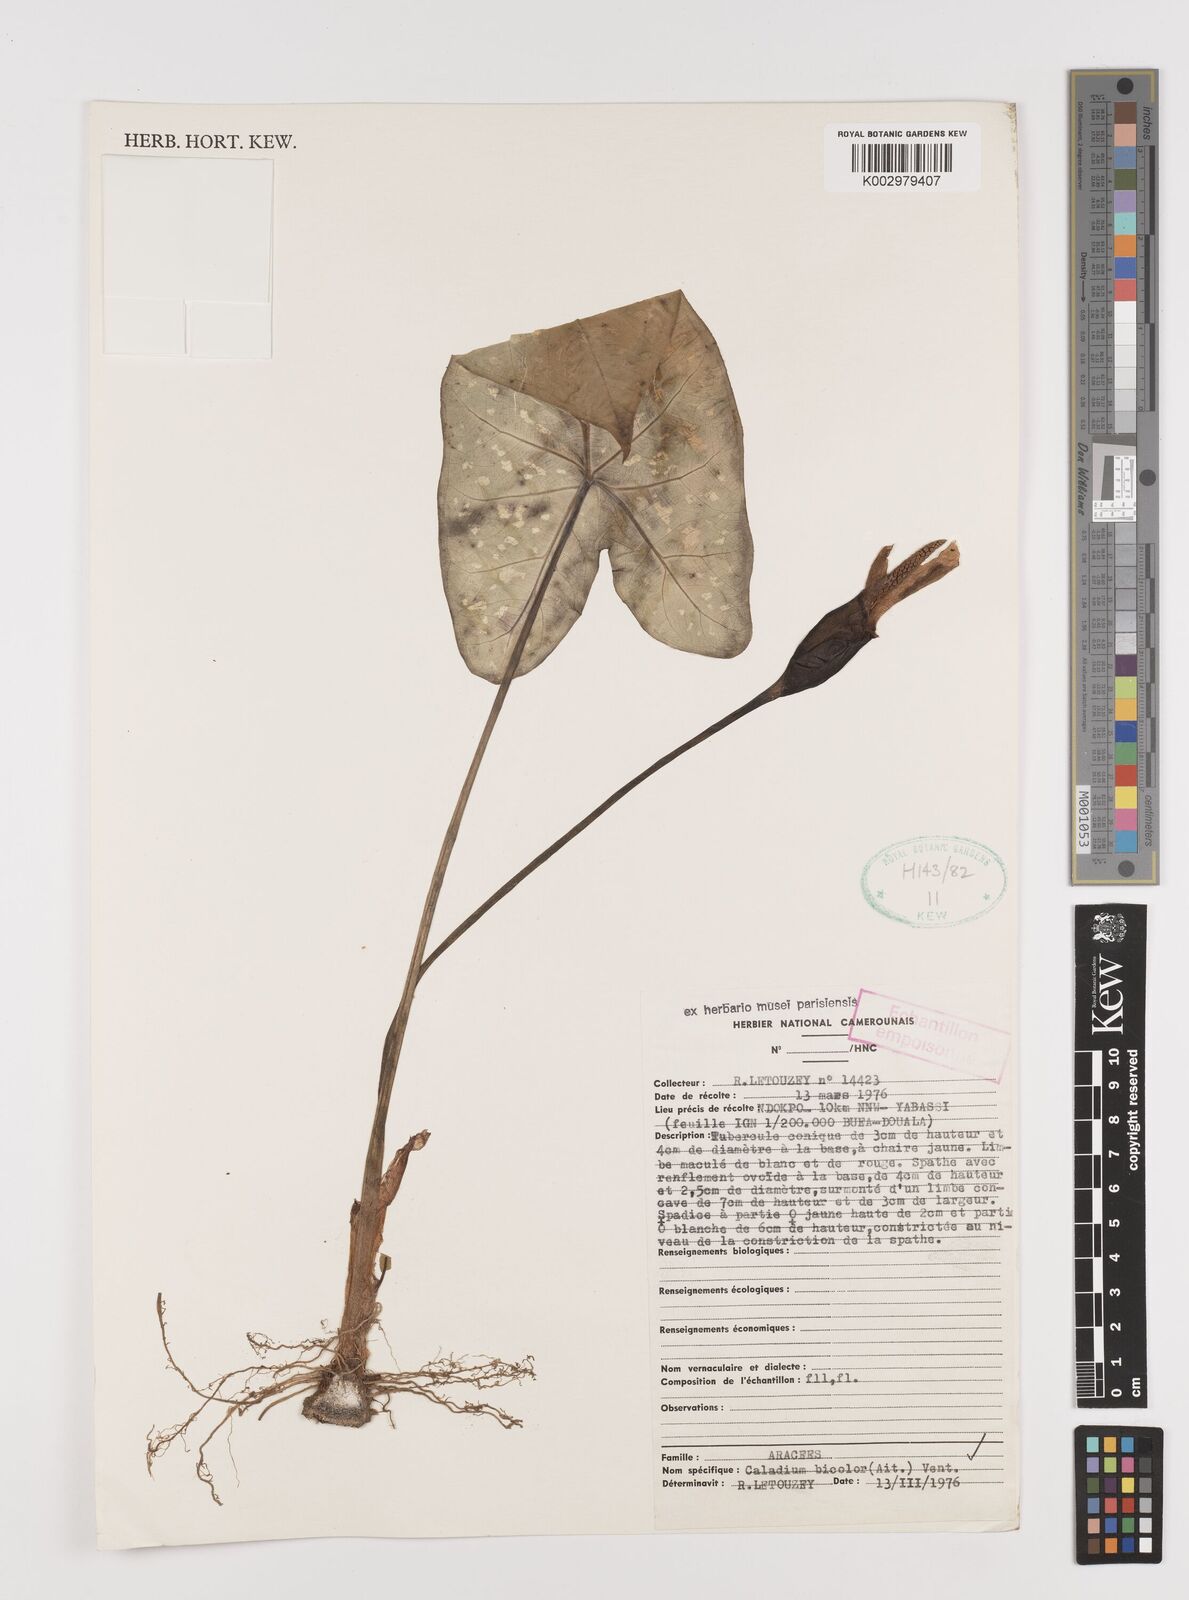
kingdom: Plantae
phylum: Tracheophyta
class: Liliopsida
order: Alismatales
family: Araceae
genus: Caladium
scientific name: Caladium bicolor
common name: Artist's pallet
